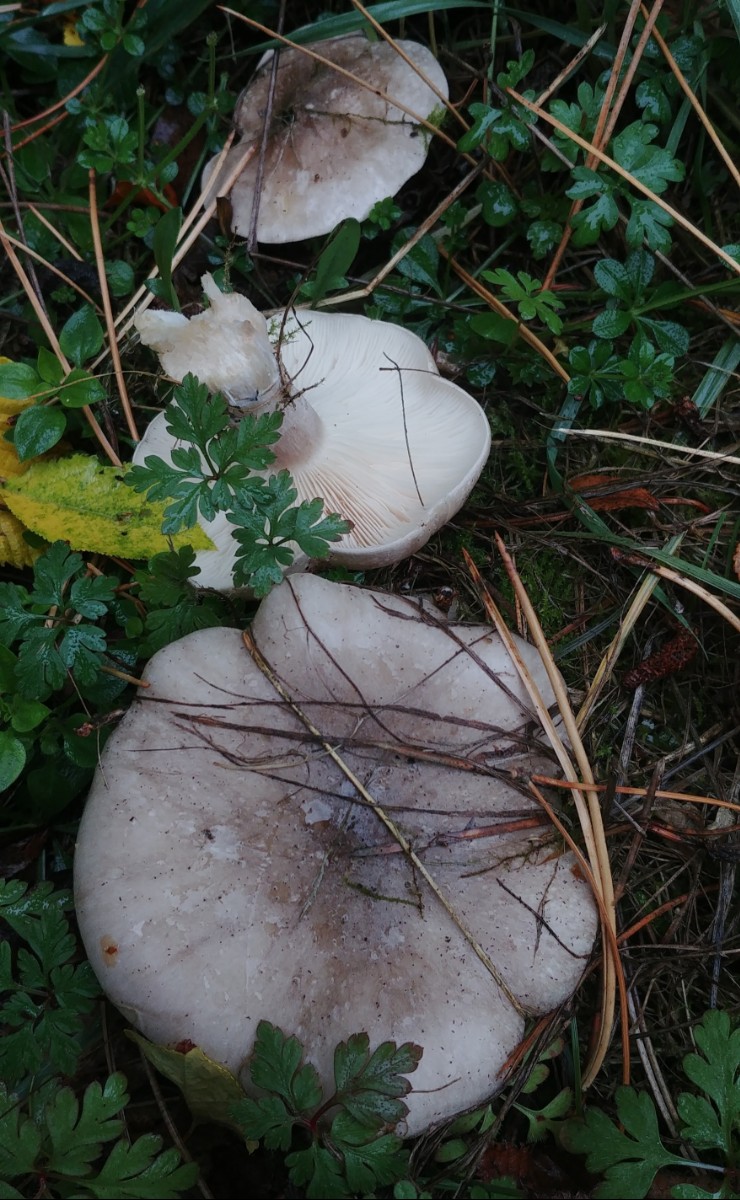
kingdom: Fungi
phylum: Basidiomycota
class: Agaricomycetes
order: Agaricales
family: Tricholomataceae
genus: Clitocybe
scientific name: Clitocybe nebularis
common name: tåge-tragthat
